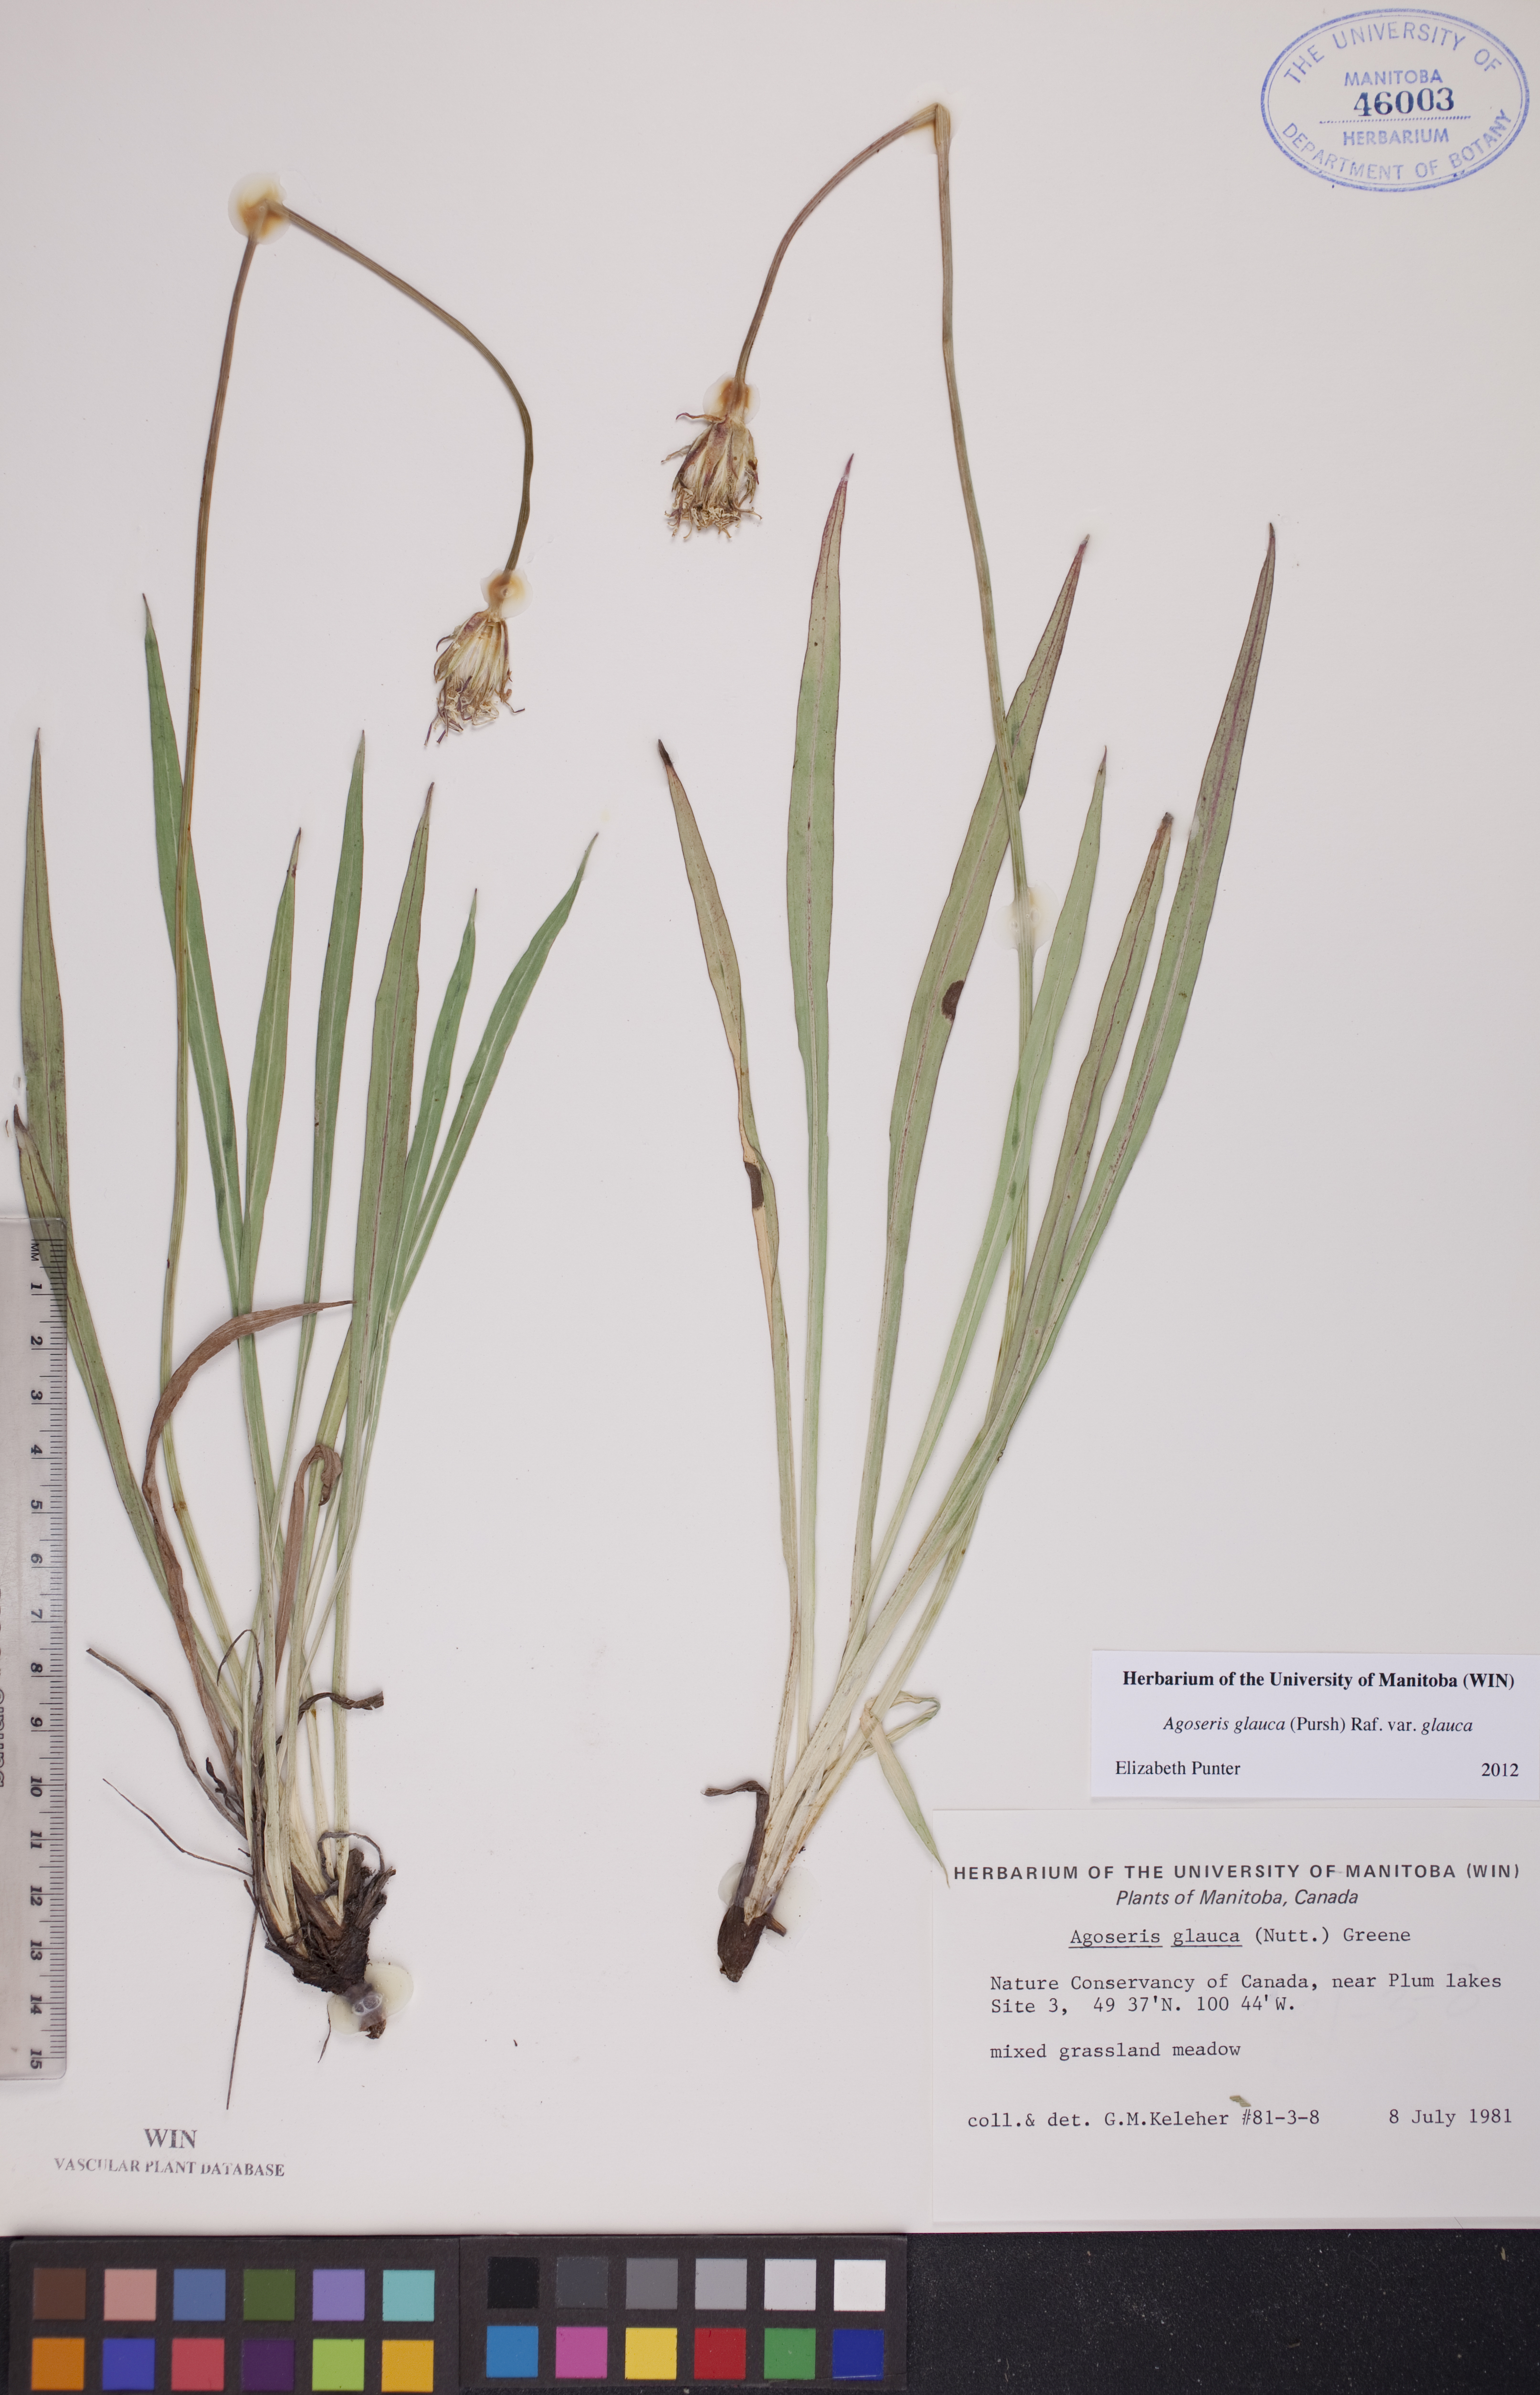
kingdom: Plantae
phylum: Tracheophyta
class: Magnoliopsida
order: Asterales
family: Asteraceae
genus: Agoseris
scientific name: Agoseris glauca
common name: Prairie agoseris
